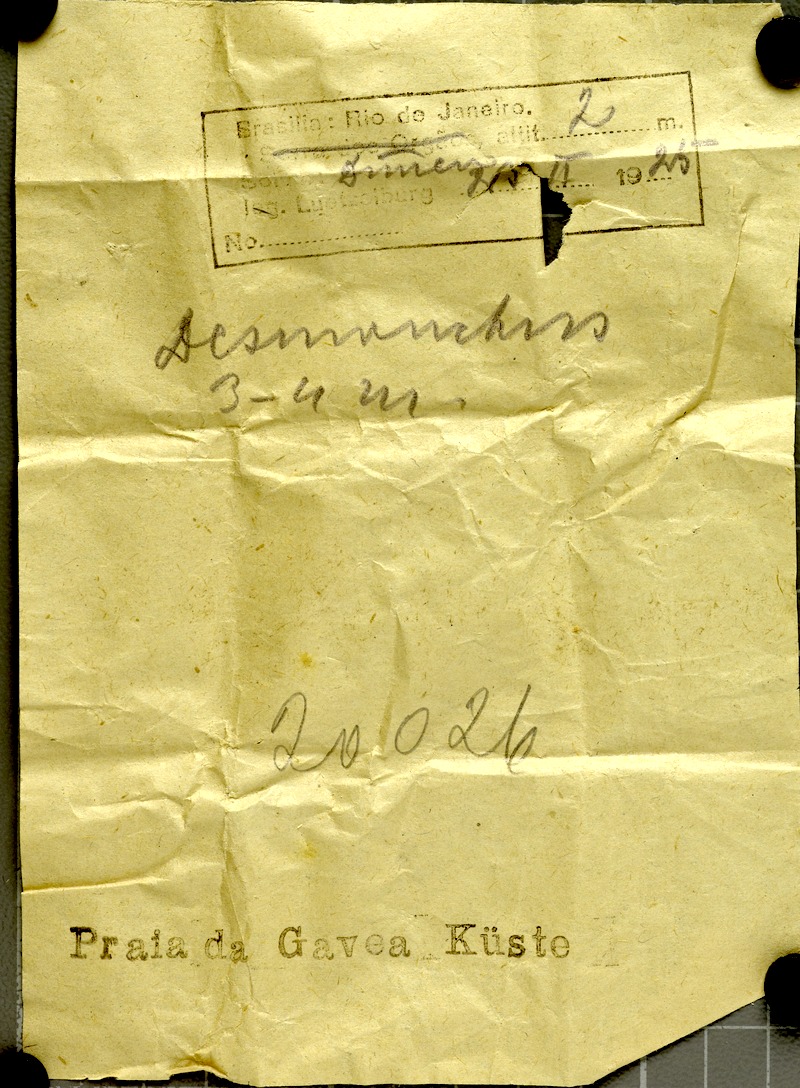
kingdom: Plantae
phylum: Tracheophyta
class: Liliopsida
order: Arecales
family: Arecaceae
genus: Desmoncus
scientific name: Desmoncus orthacanthos
